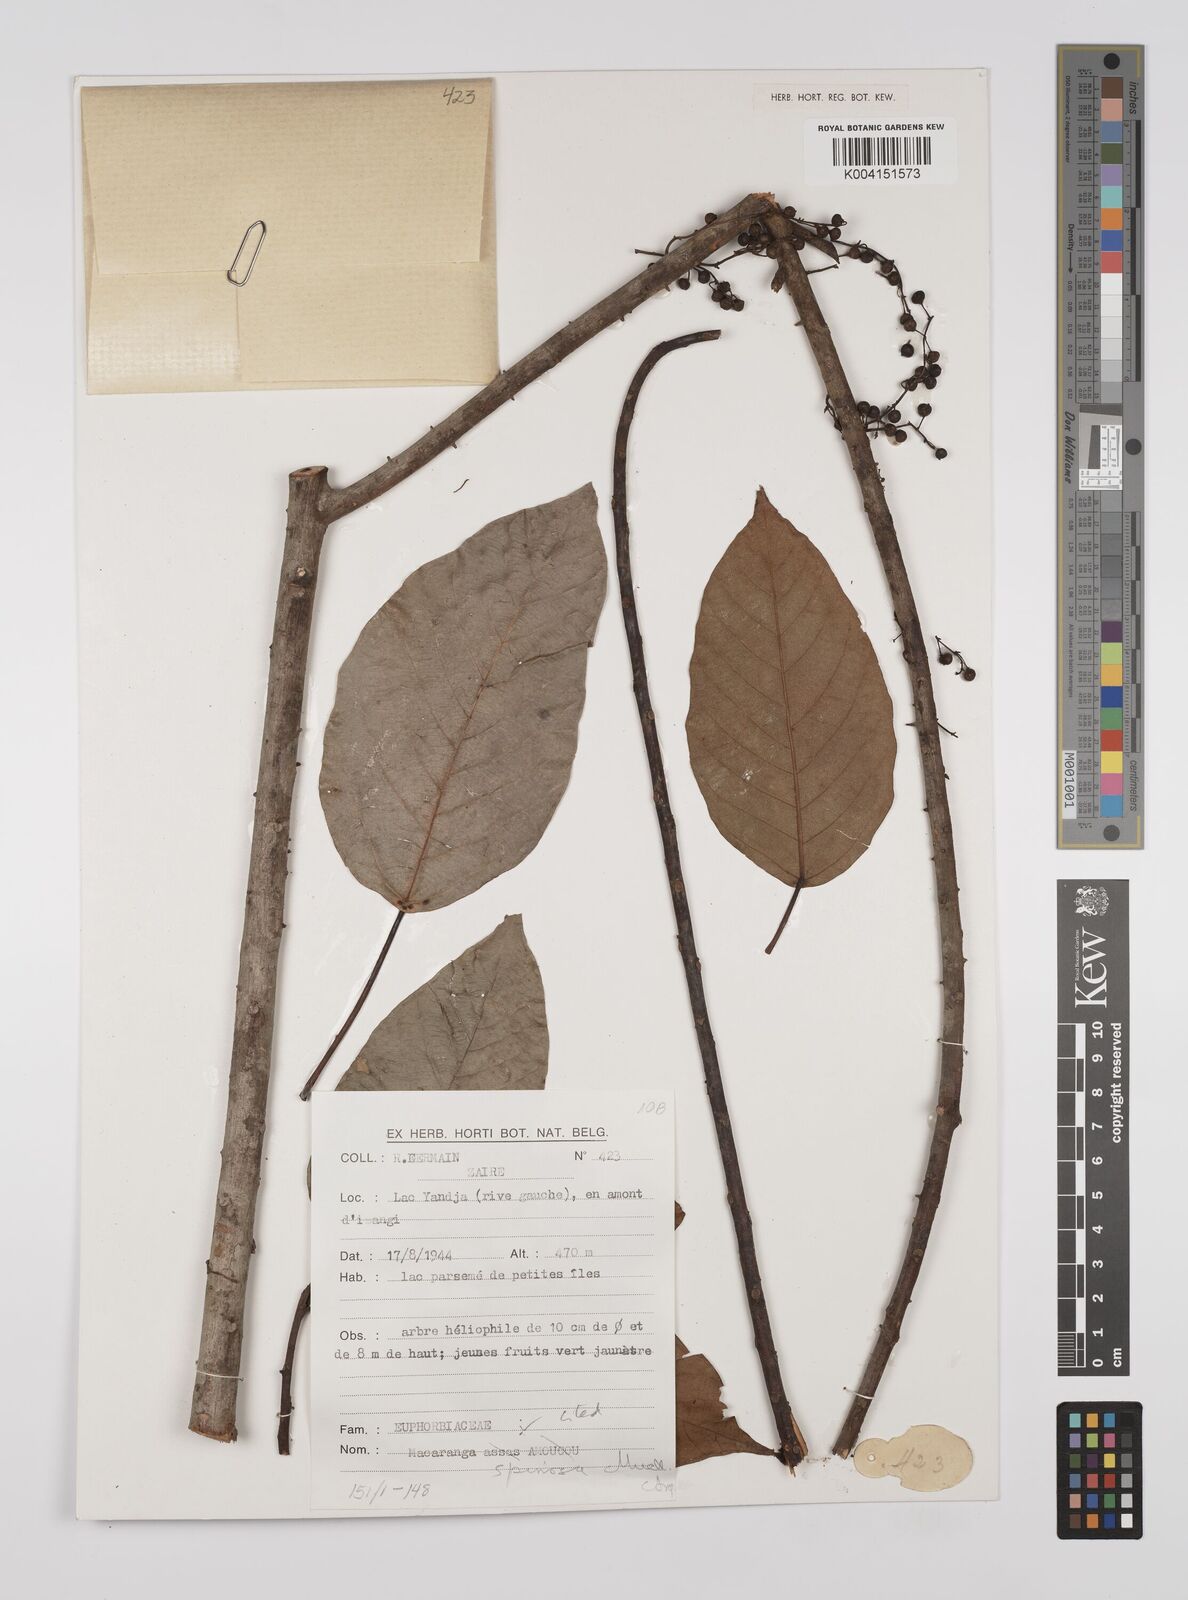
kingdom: Plantae
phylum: Tracheophyta
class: Magnoliopsida
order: Malpighiales
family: Euphorbiaceae
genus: Macaranga
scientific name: Macaranga assas
